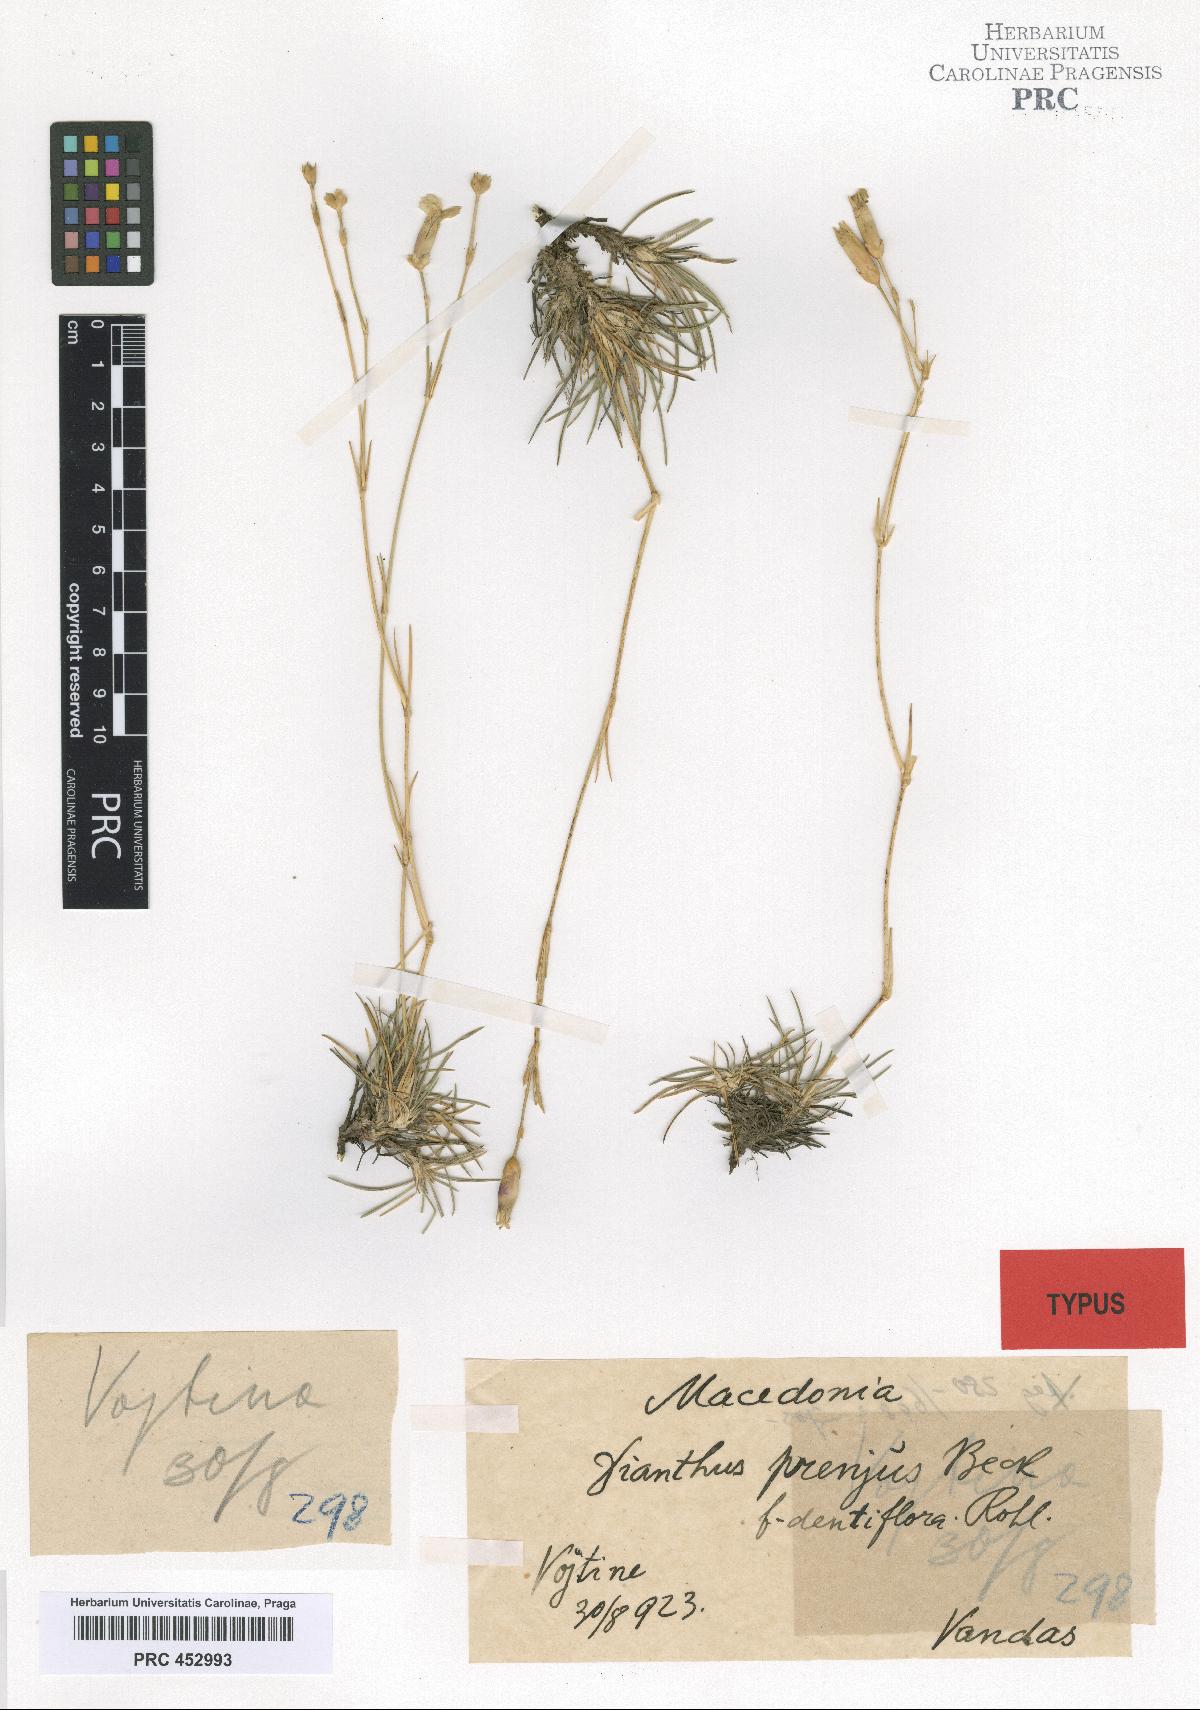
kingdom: Plantae
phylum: Tracheophyta
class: Magnoliopsida
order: Caryophyllales
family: Caryophyllaceae
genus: Dianthus
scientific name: Dianthus integer
